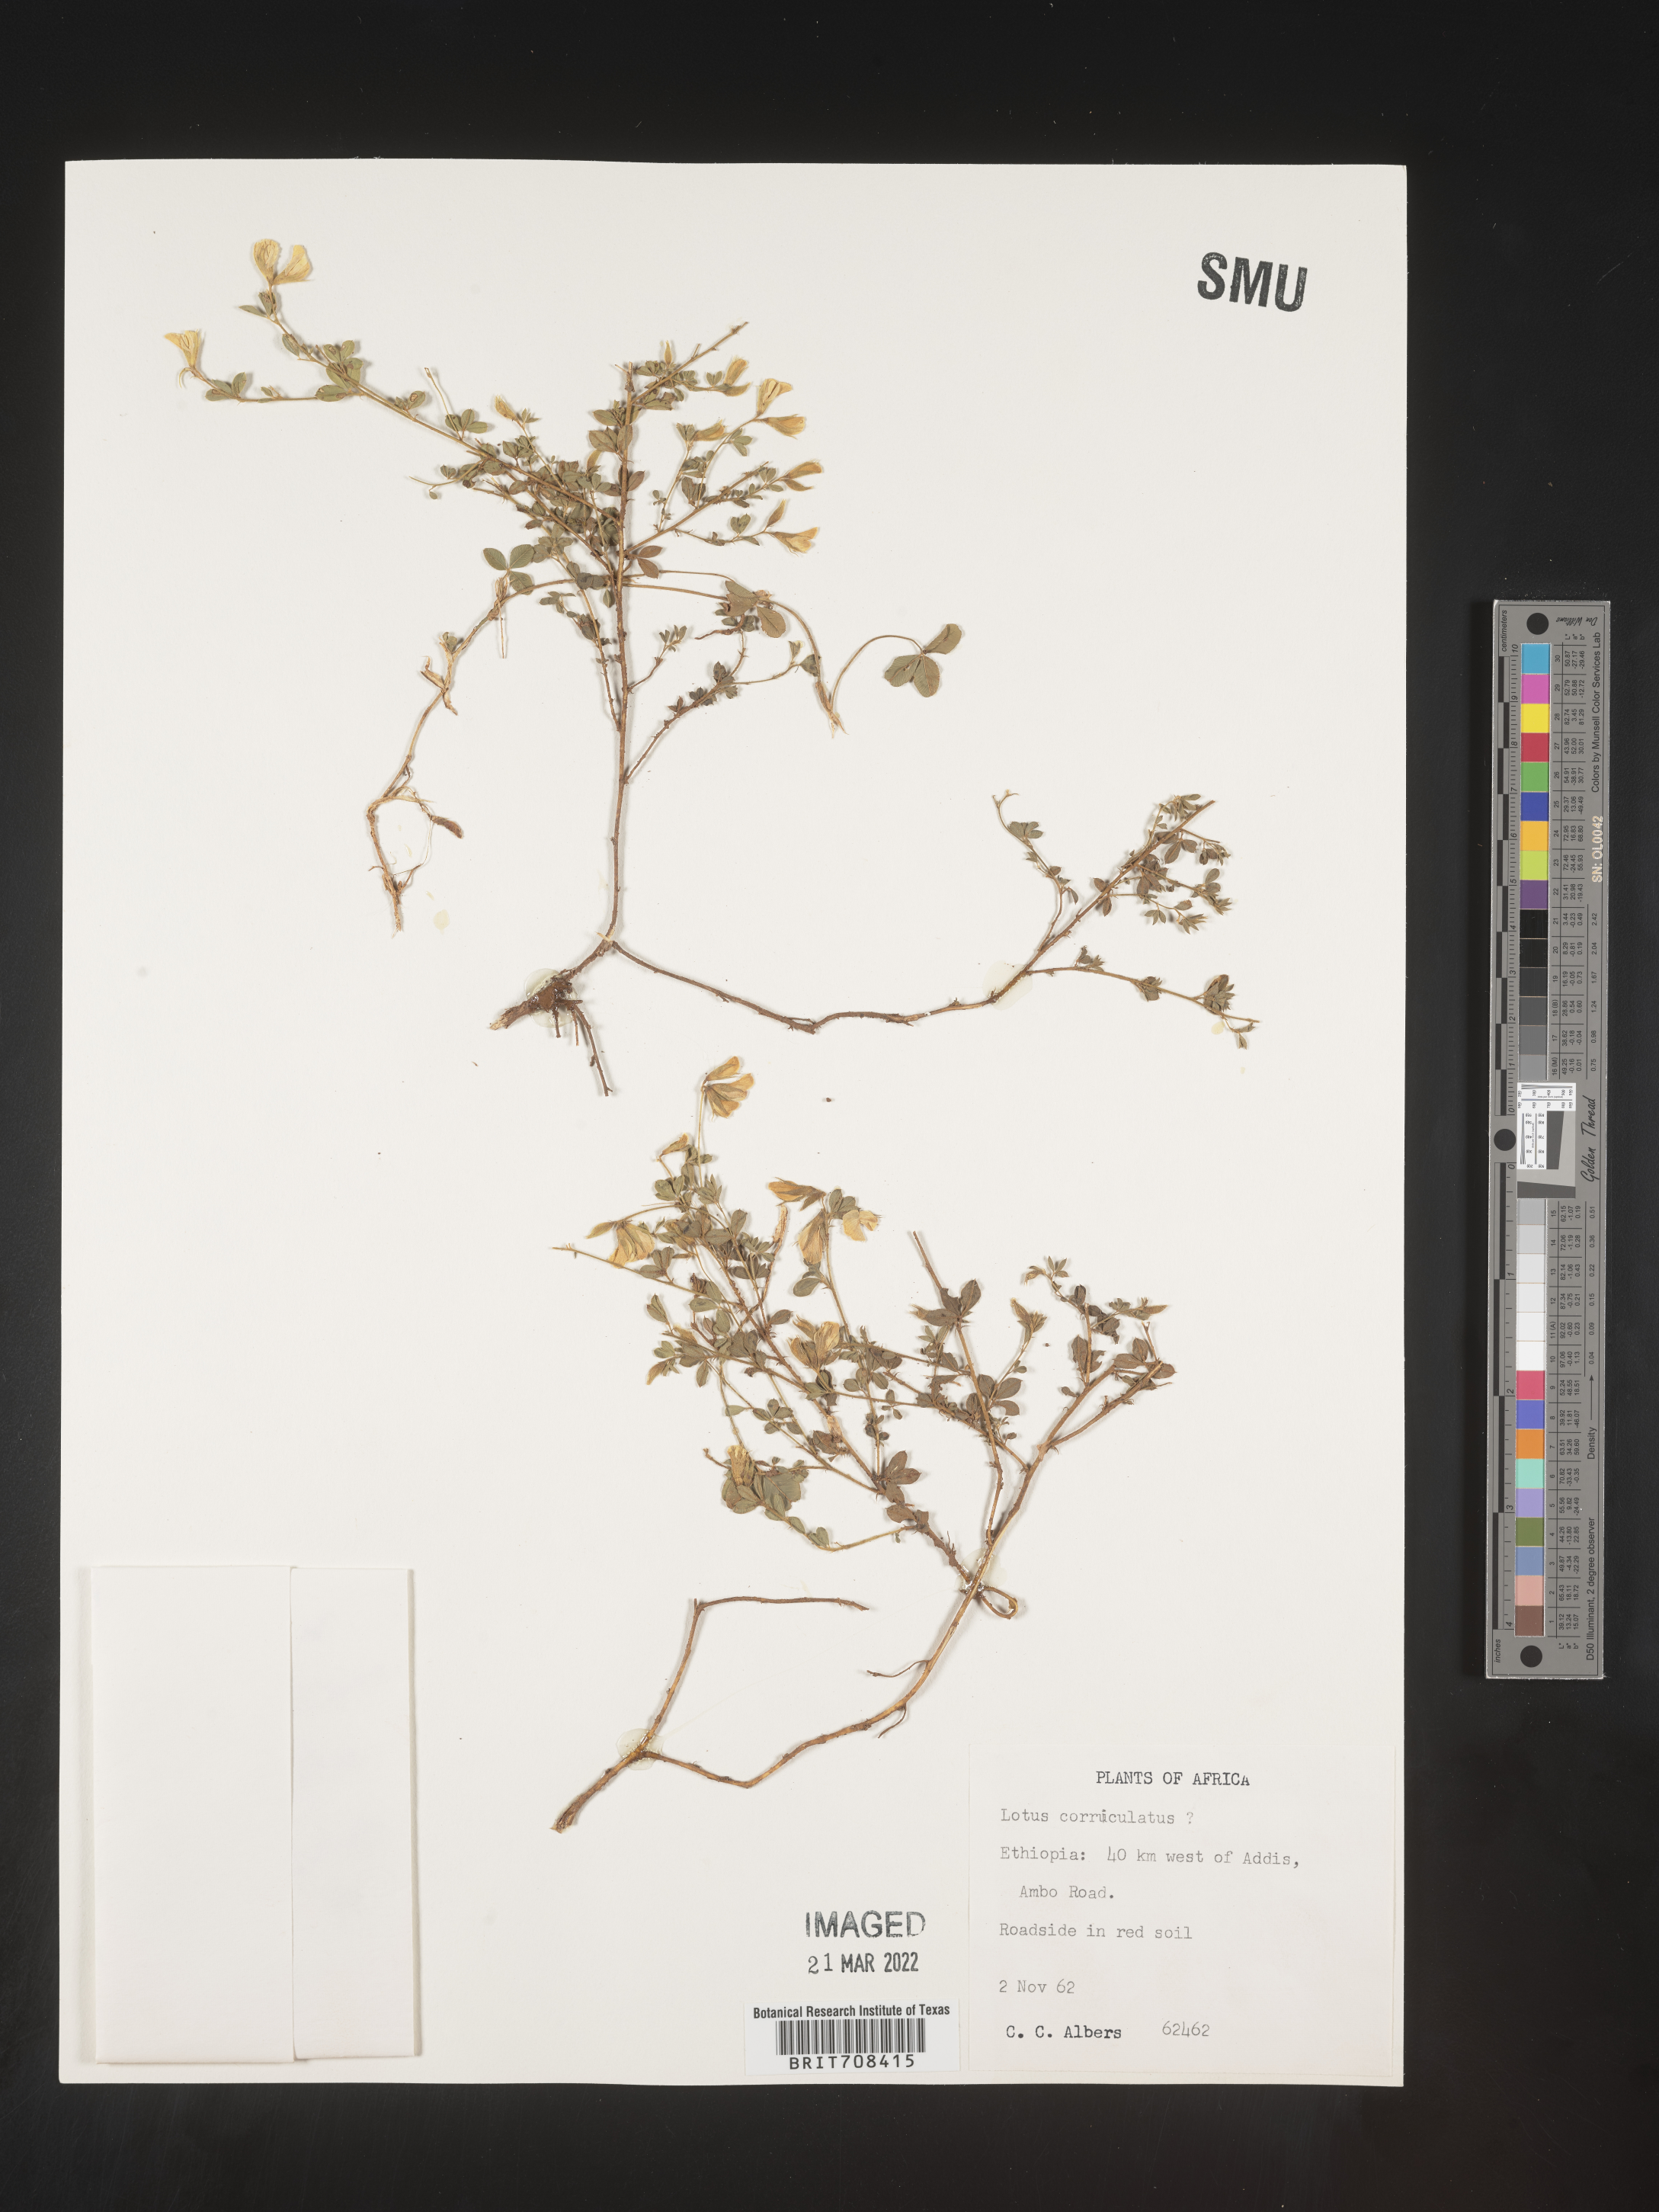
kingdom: Plantae
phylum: Tracheophyta
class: Magnoliopsida
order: Fabales
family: Fabaceae
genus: Lotus
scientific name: Lotus
